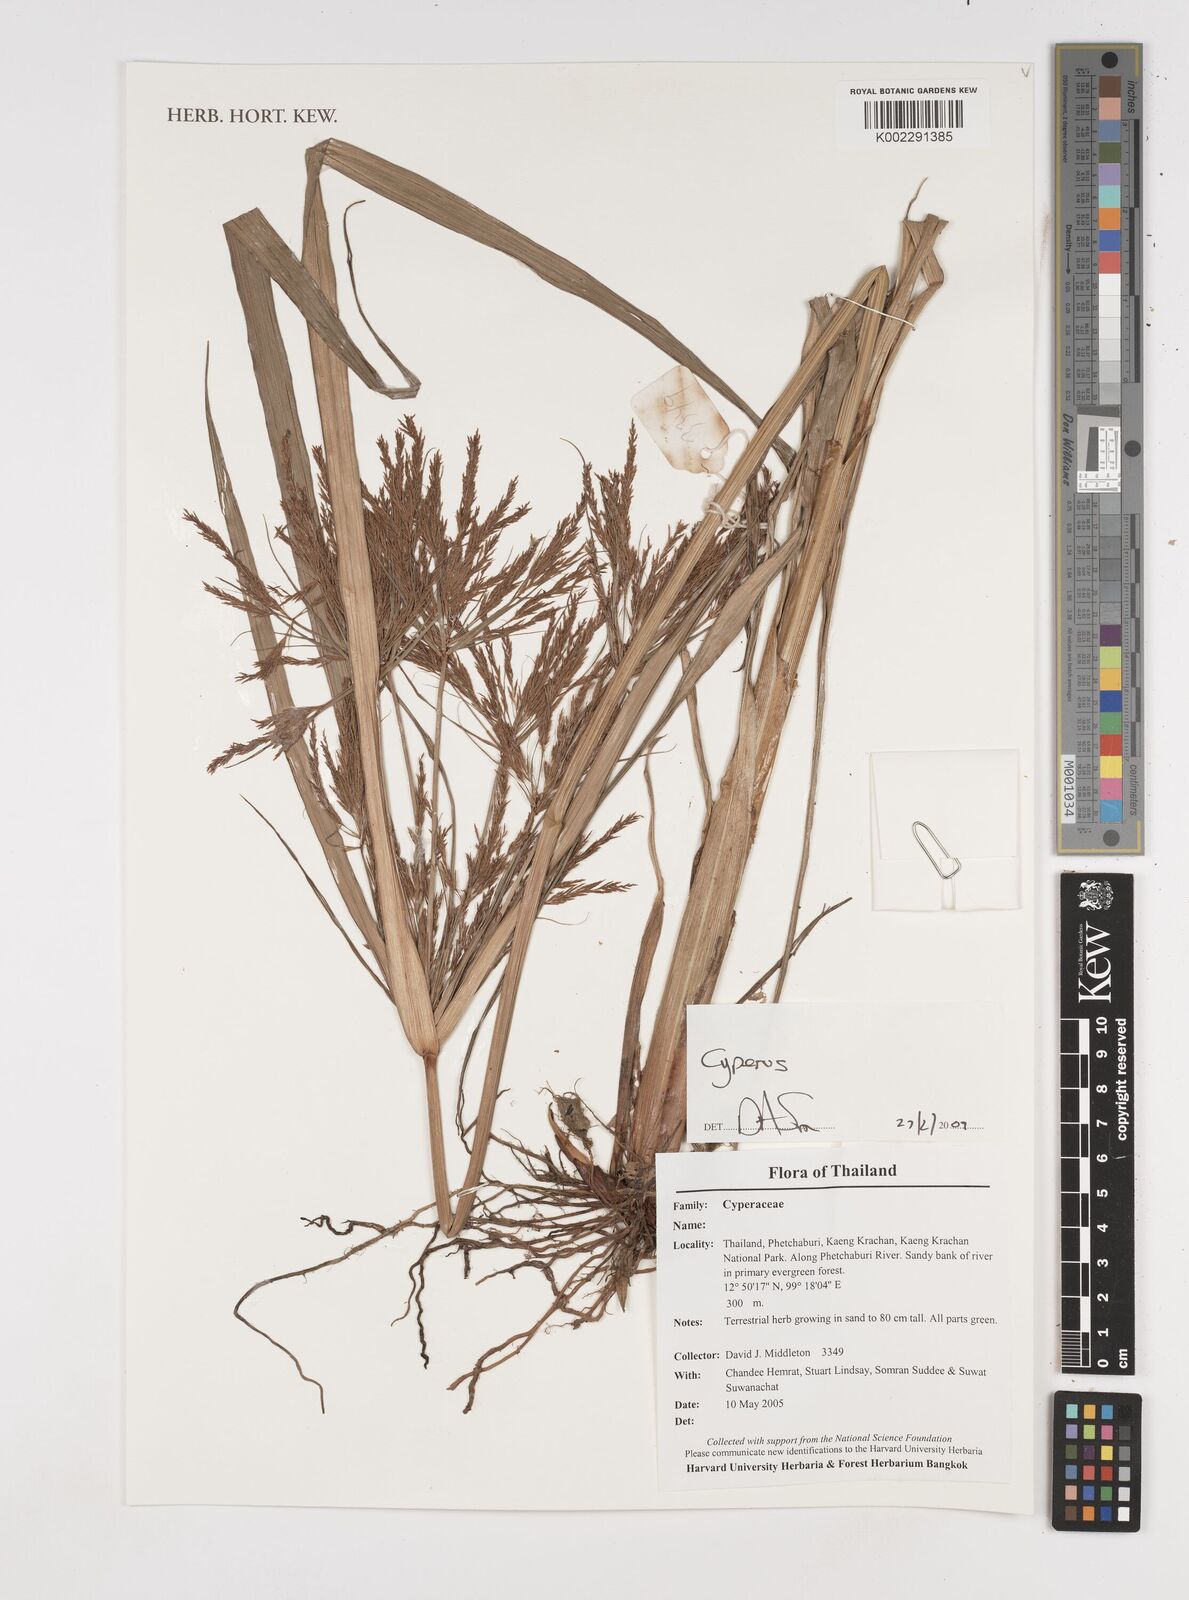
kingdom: Plantae
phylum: Tracheophyta
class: Liliopsida
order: Poales
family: Cyperaceae
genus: Cyperus
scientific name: Cyperus
